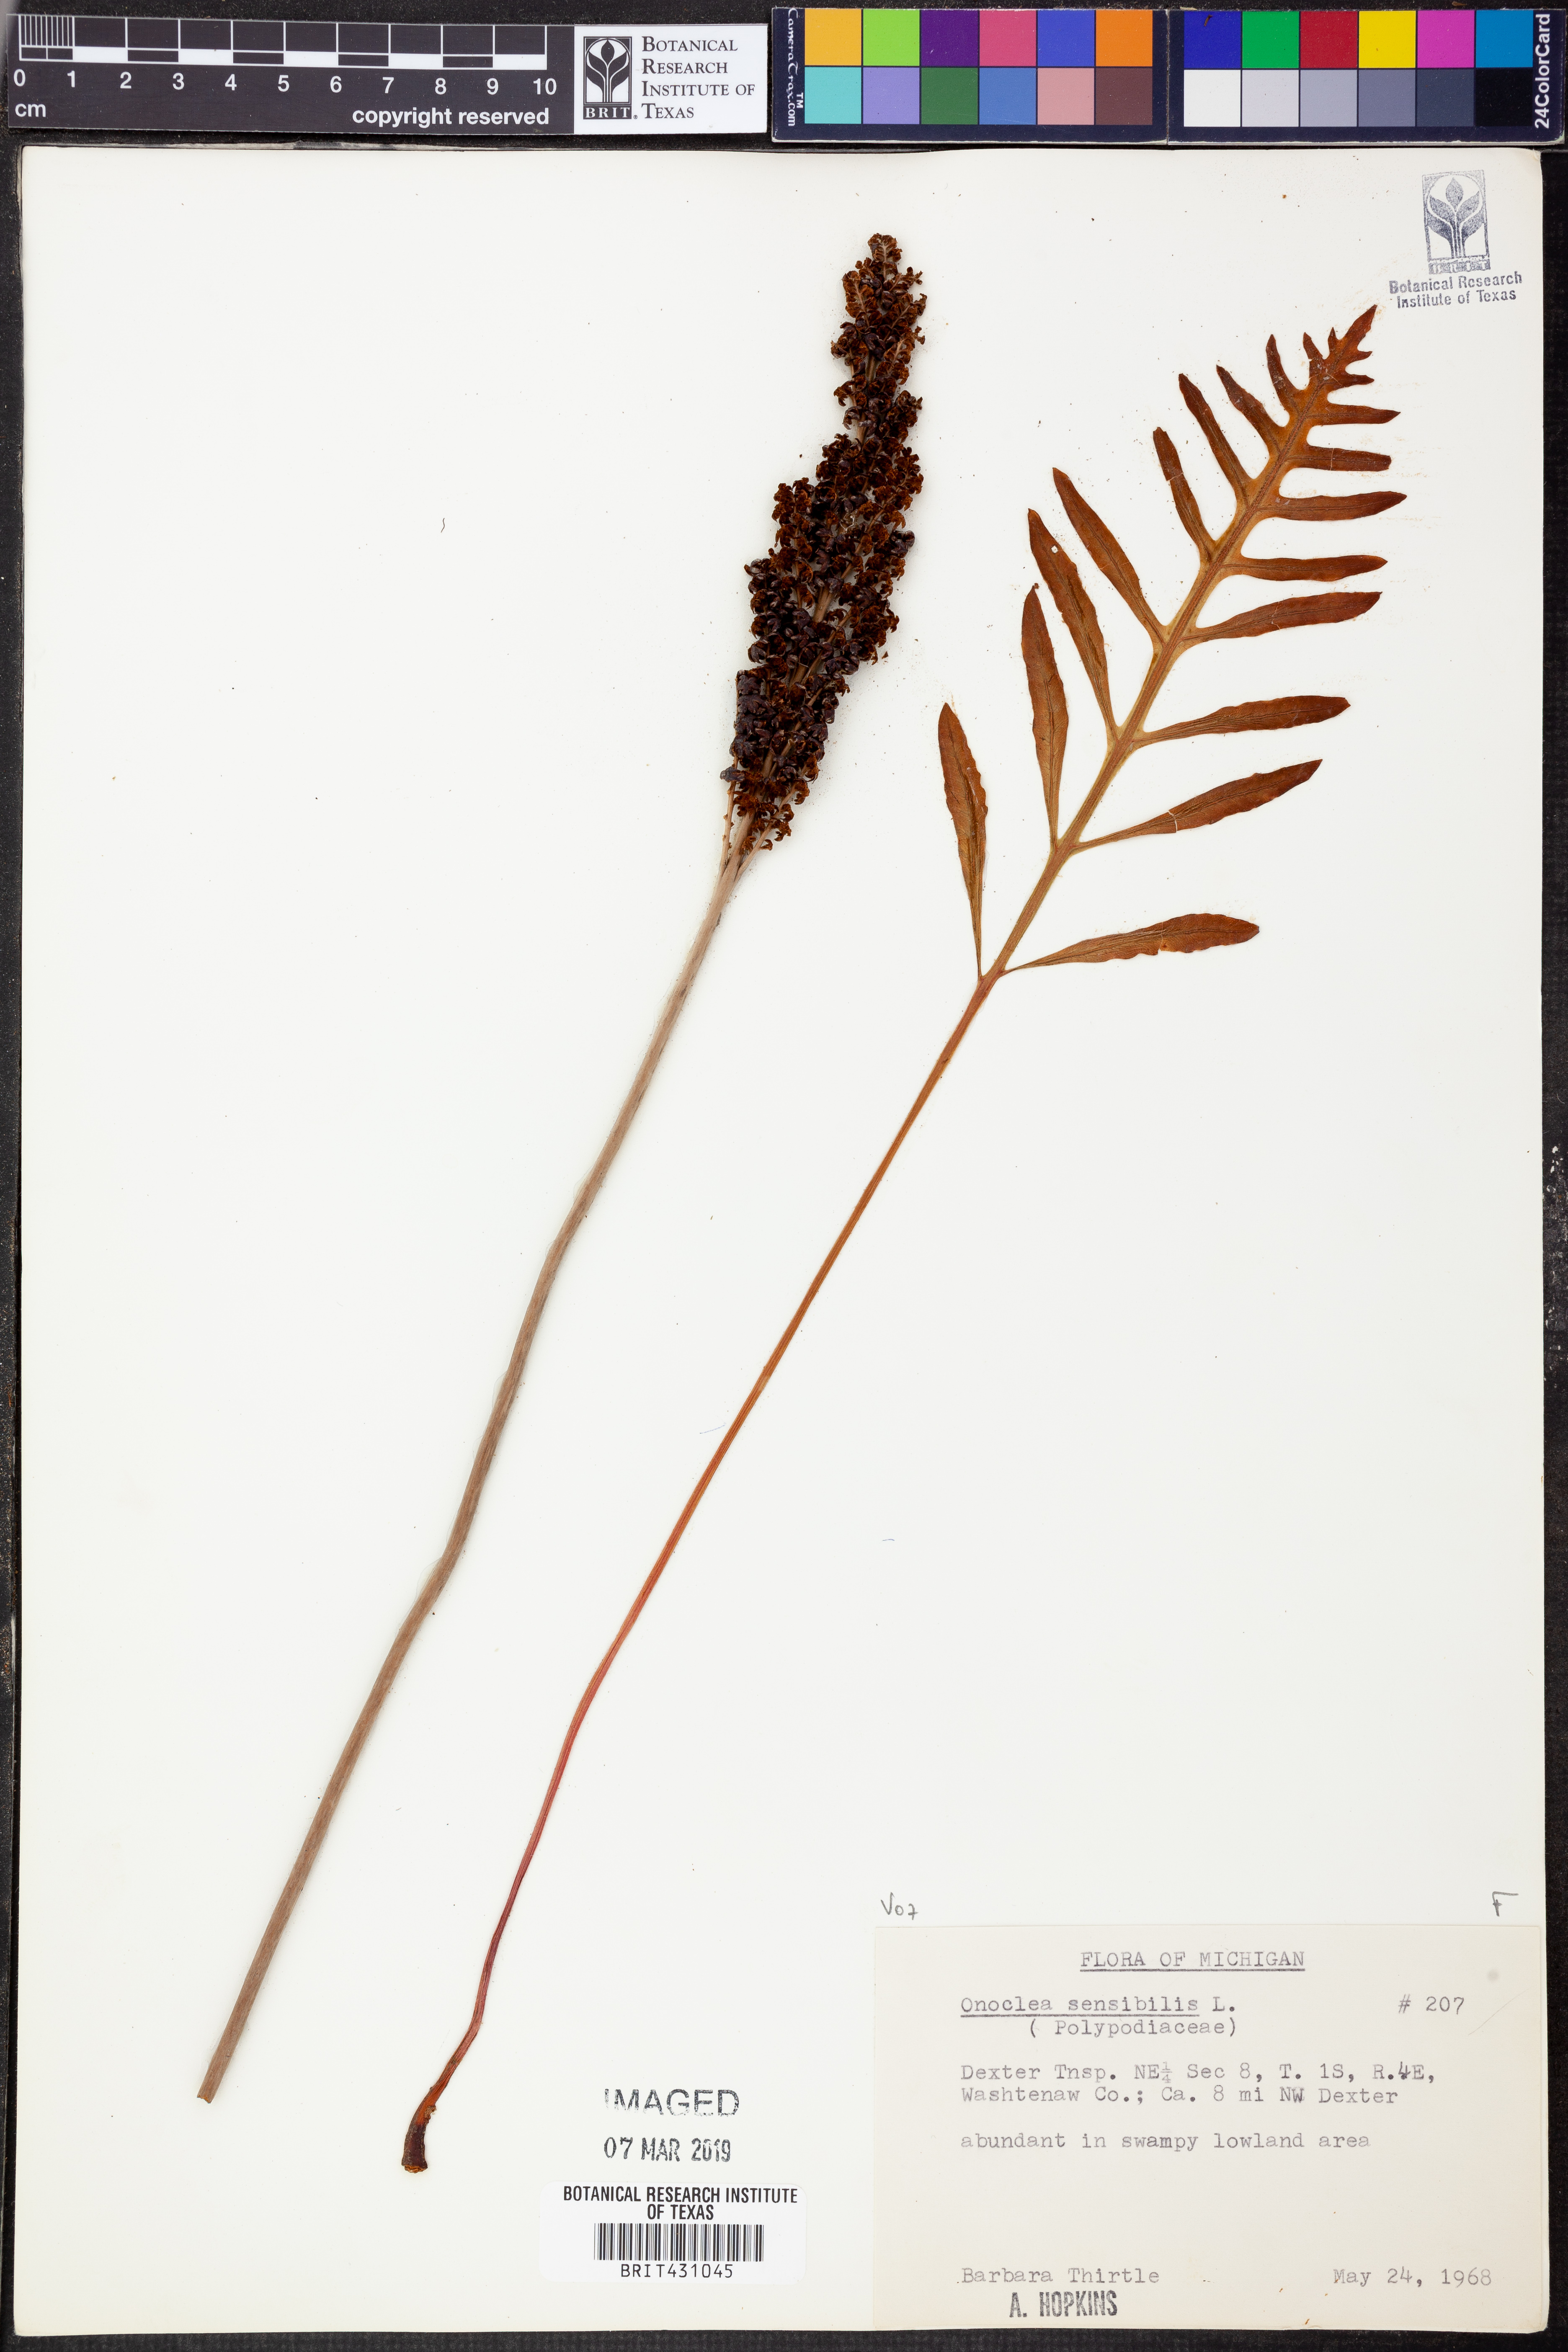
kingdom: Plantae
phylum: Tracheophyta
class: Polypodiopsida
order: Polypodiales
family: Onocleaceae
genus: Onoclea
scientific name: Onoclea sensibilis
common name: Sensitive fern
